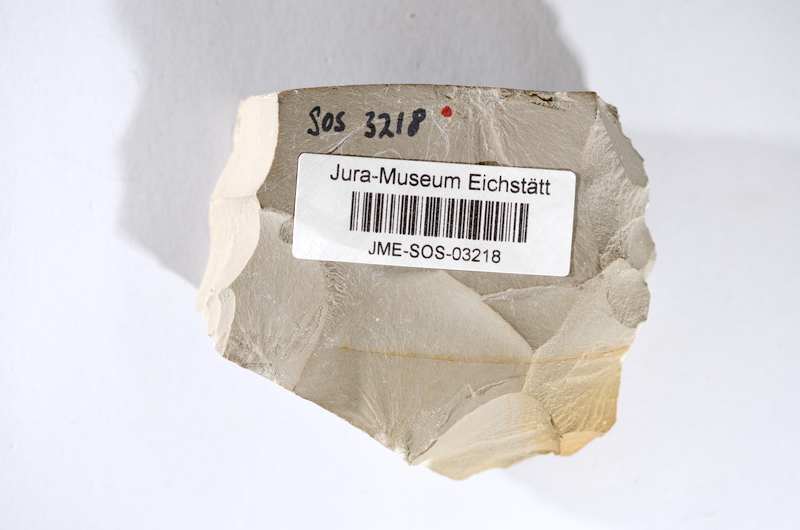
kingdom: Animalia
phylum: Chordata
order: Salmoniformes
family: Orthogonikleithridae
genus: Leptolepides
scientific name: Leptolepides sprattiformis
